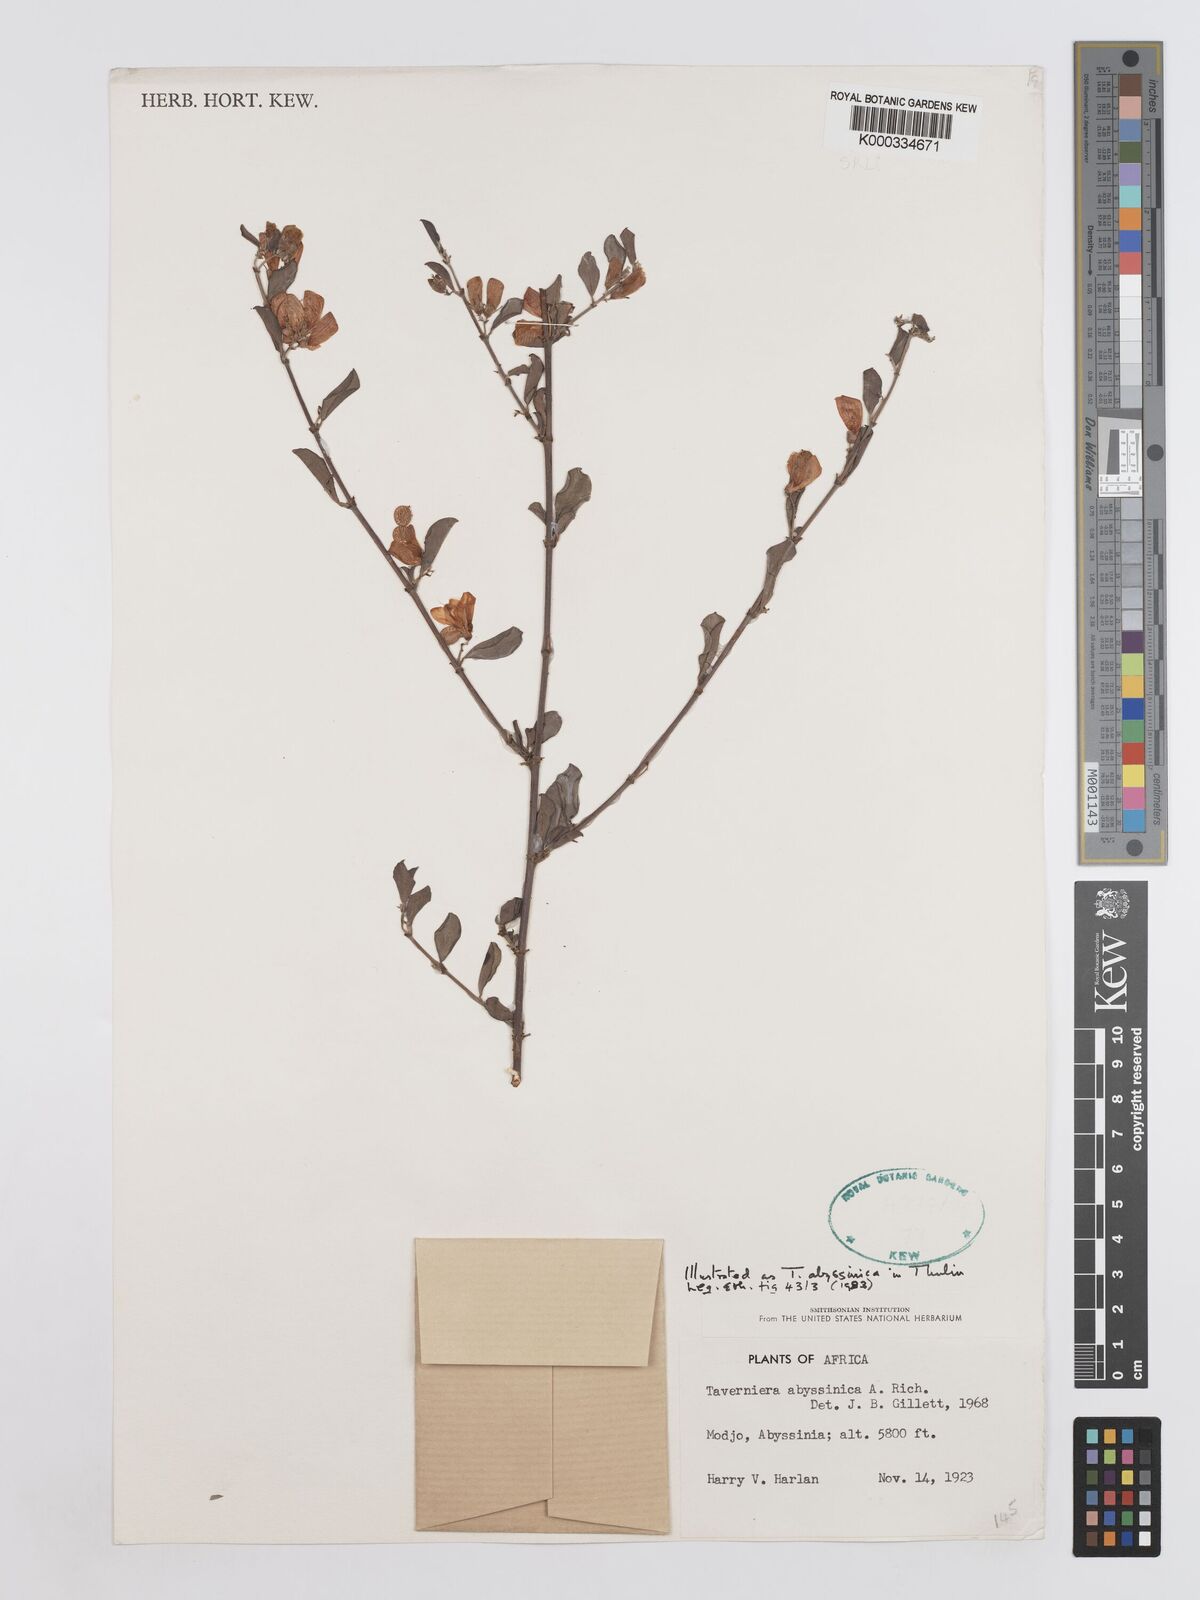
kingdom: Plantae
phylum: Tracheophyta
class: Magnoliopsida
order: Fabales
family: Fabaceae
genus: Taverniera
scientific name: Taverniera abyssinica
